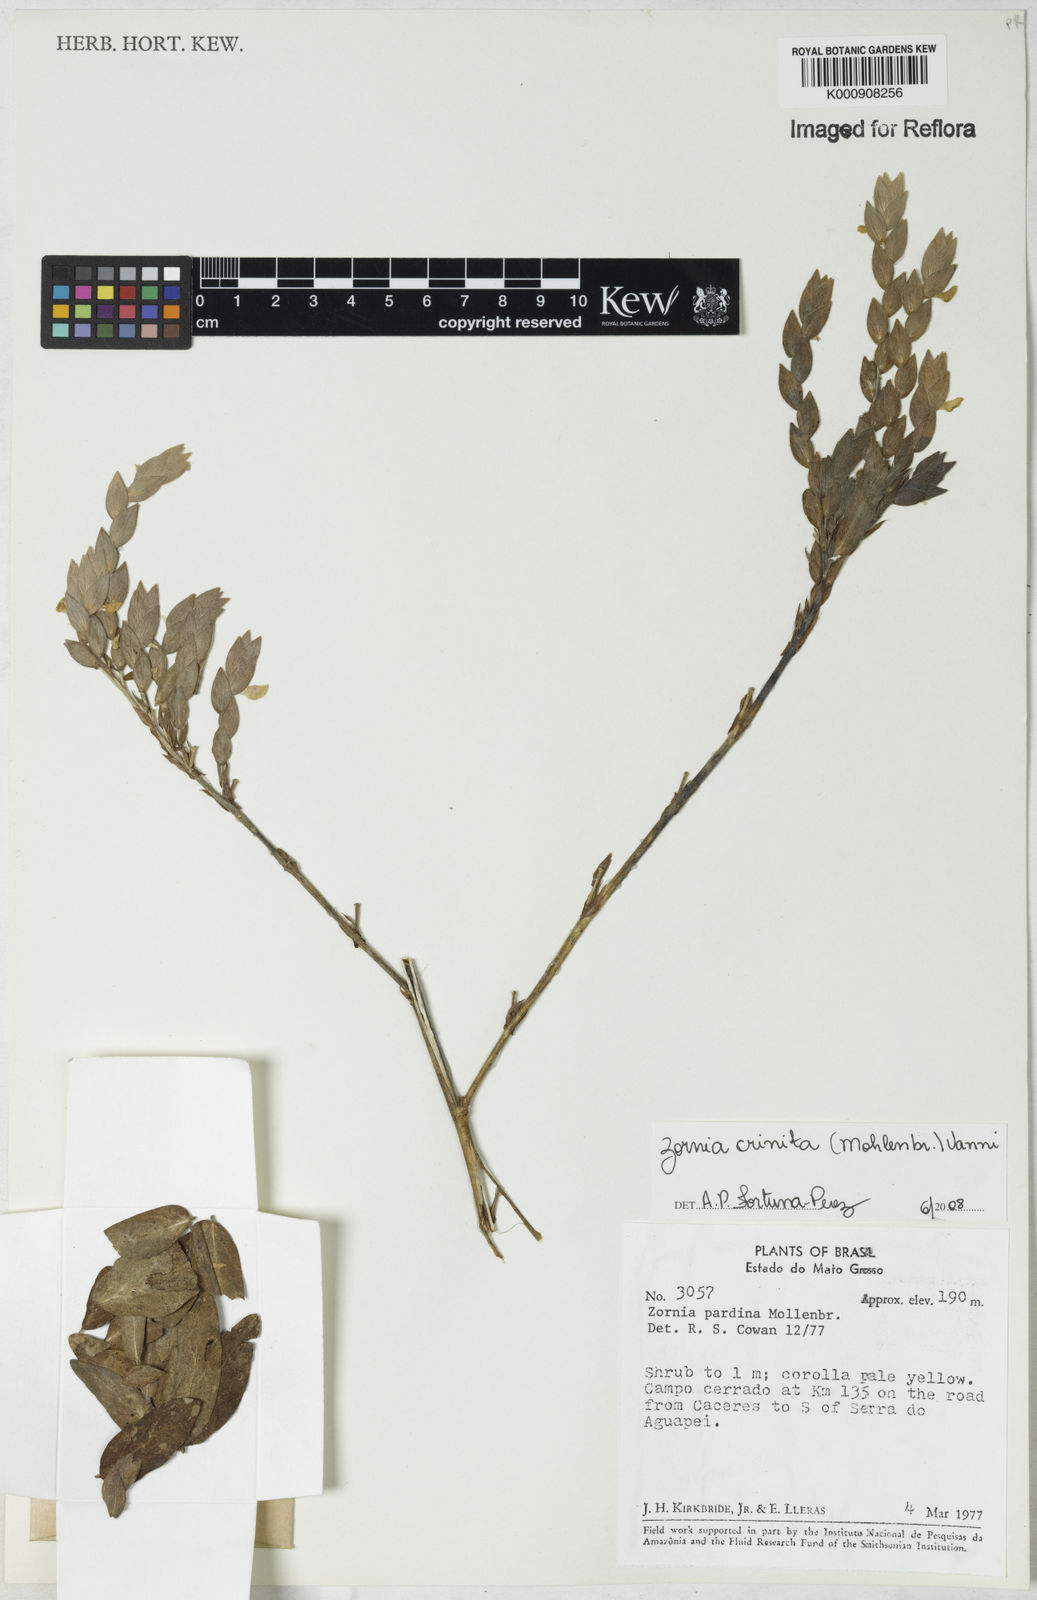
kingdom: Plantae
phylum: Tracheophyta
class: Magnoliopsida
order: Fabales
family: Fabaceae
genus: Zornia
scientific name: Zornia pardina
